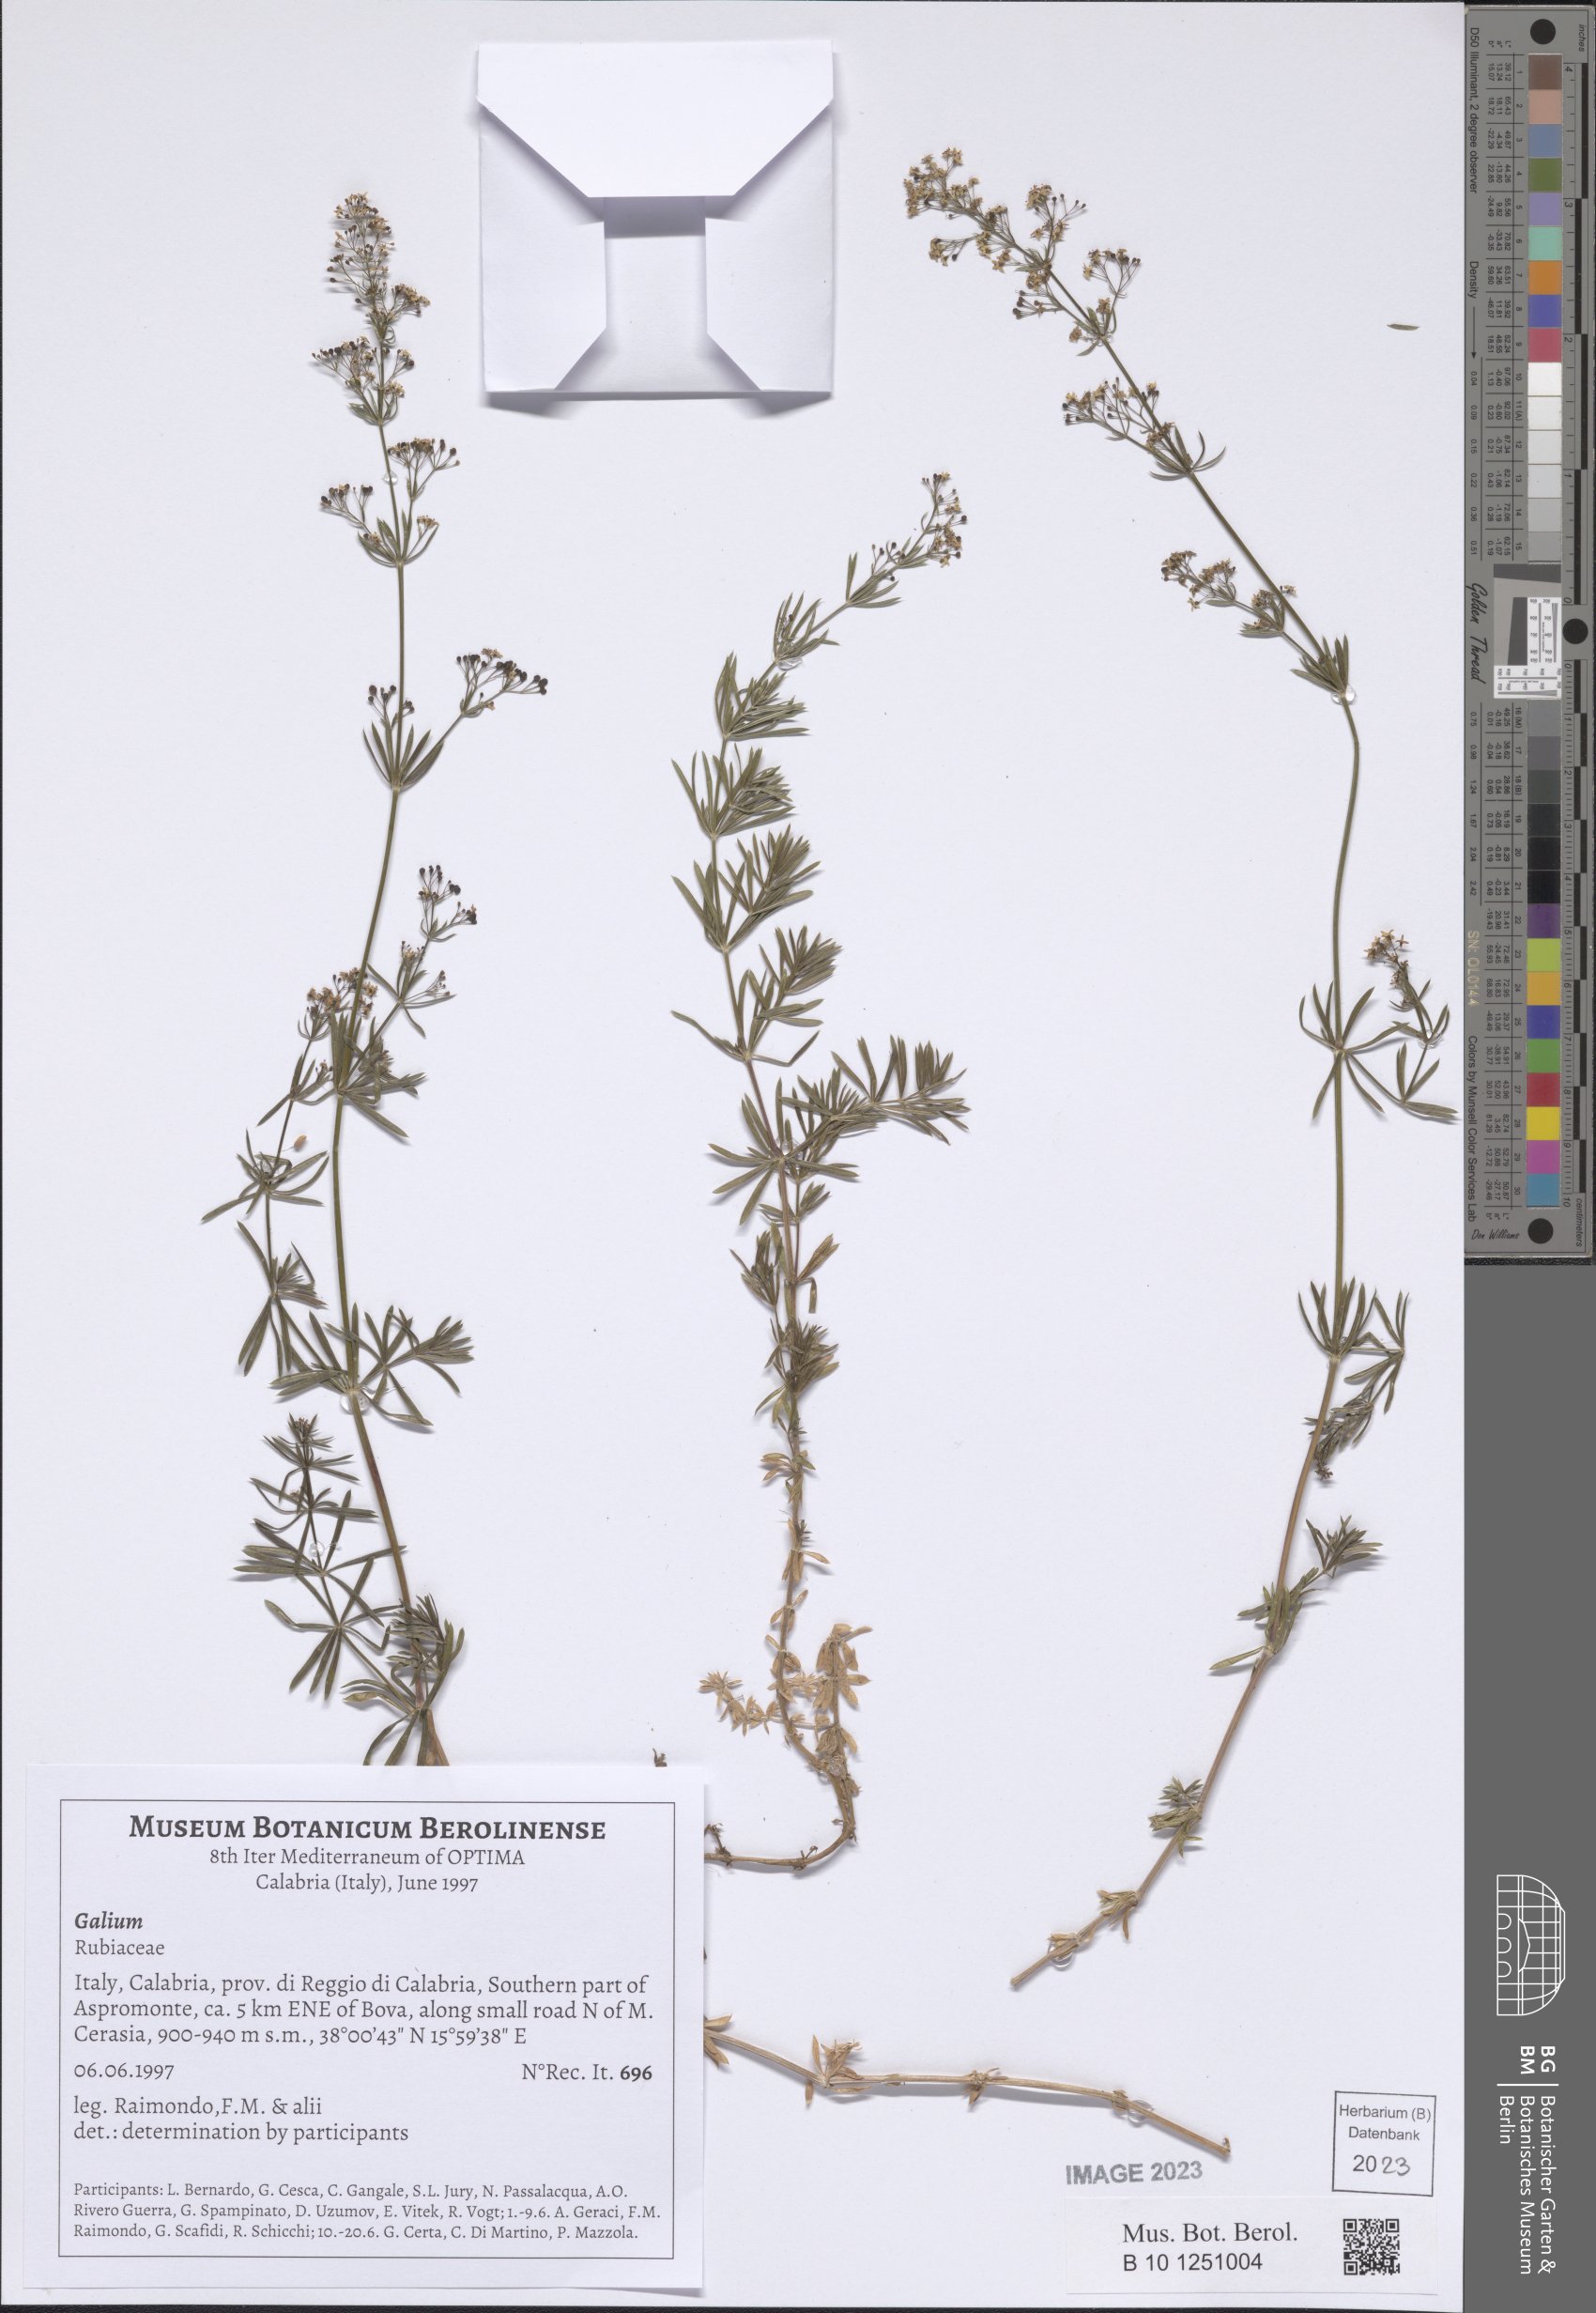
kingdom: Plantae
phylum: Tracheophyta
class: Magnoliopsida
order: Gentianales
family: Rubiaceae
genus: Galium
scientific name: Galium
